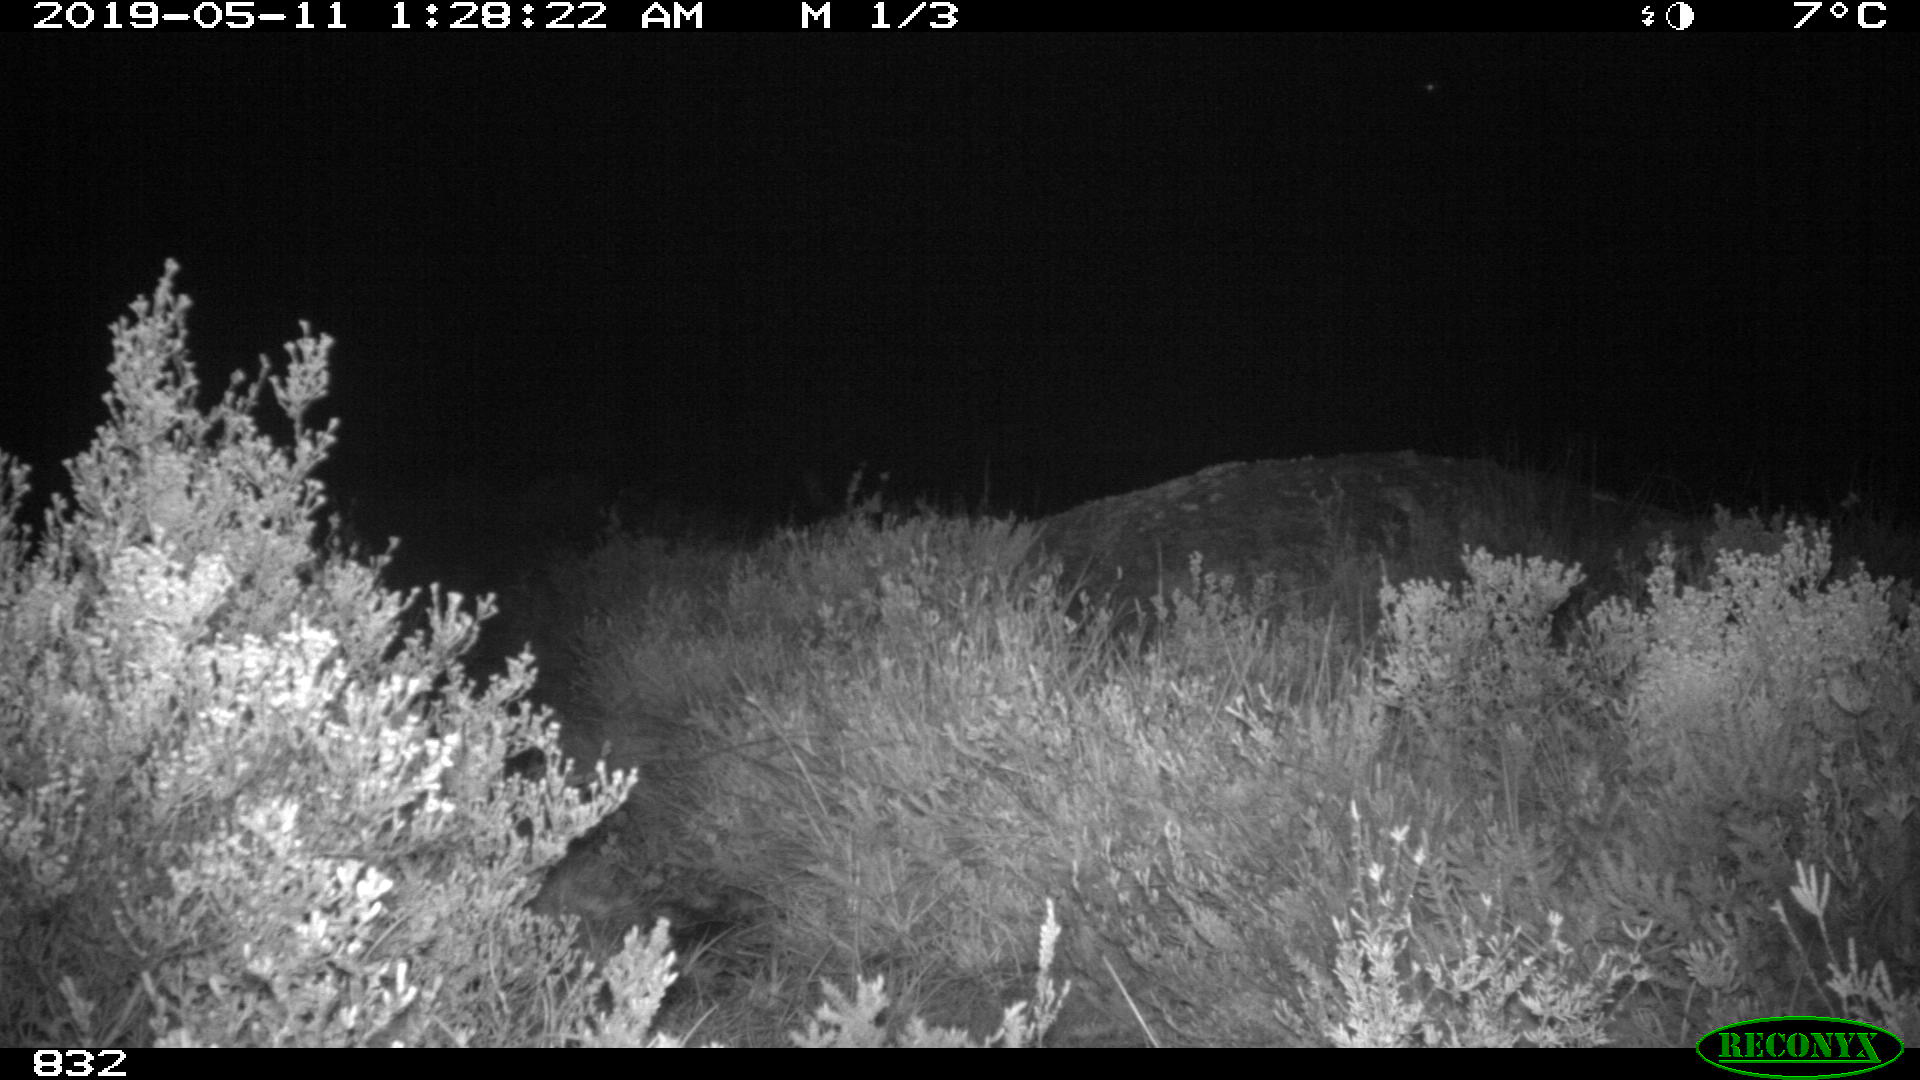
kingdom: Animalia
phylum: Chordata
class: Mammalia
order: Carnivora
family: Canidae
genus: Canis
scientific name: Canis lupus
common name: Gray wolf
